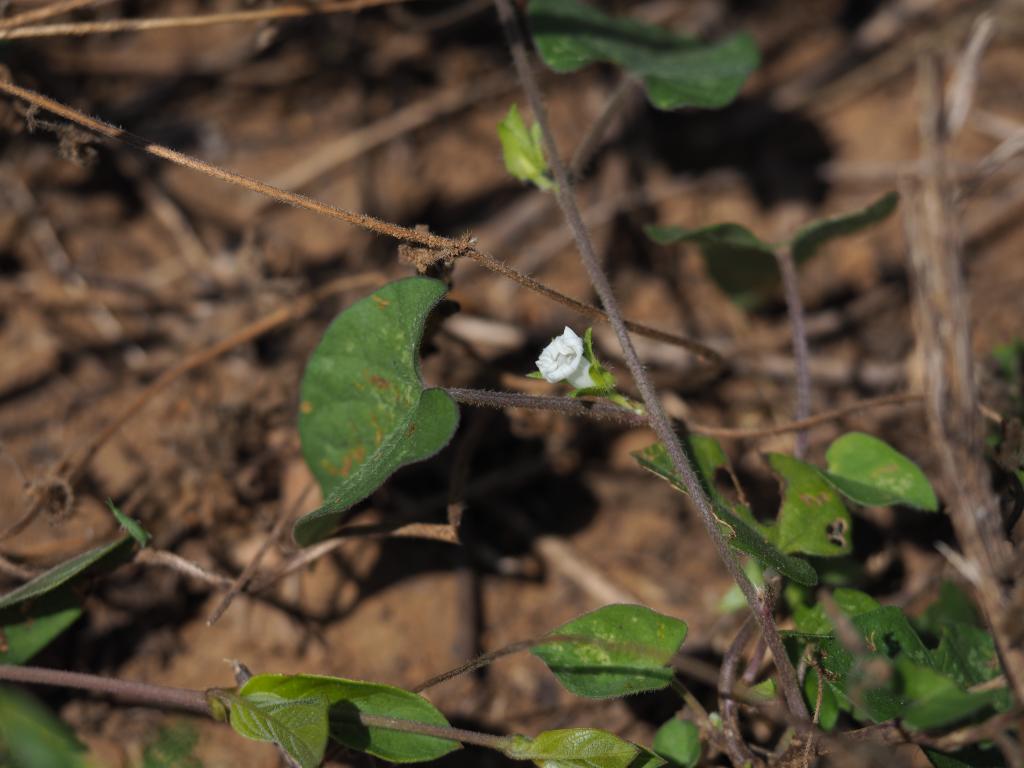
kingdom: Plantae
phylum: Tracheophyta
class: Magnoliopsida
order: Solanales
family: Convolvulaceae
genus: Ipomoea
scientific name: Ipomoea biflora
